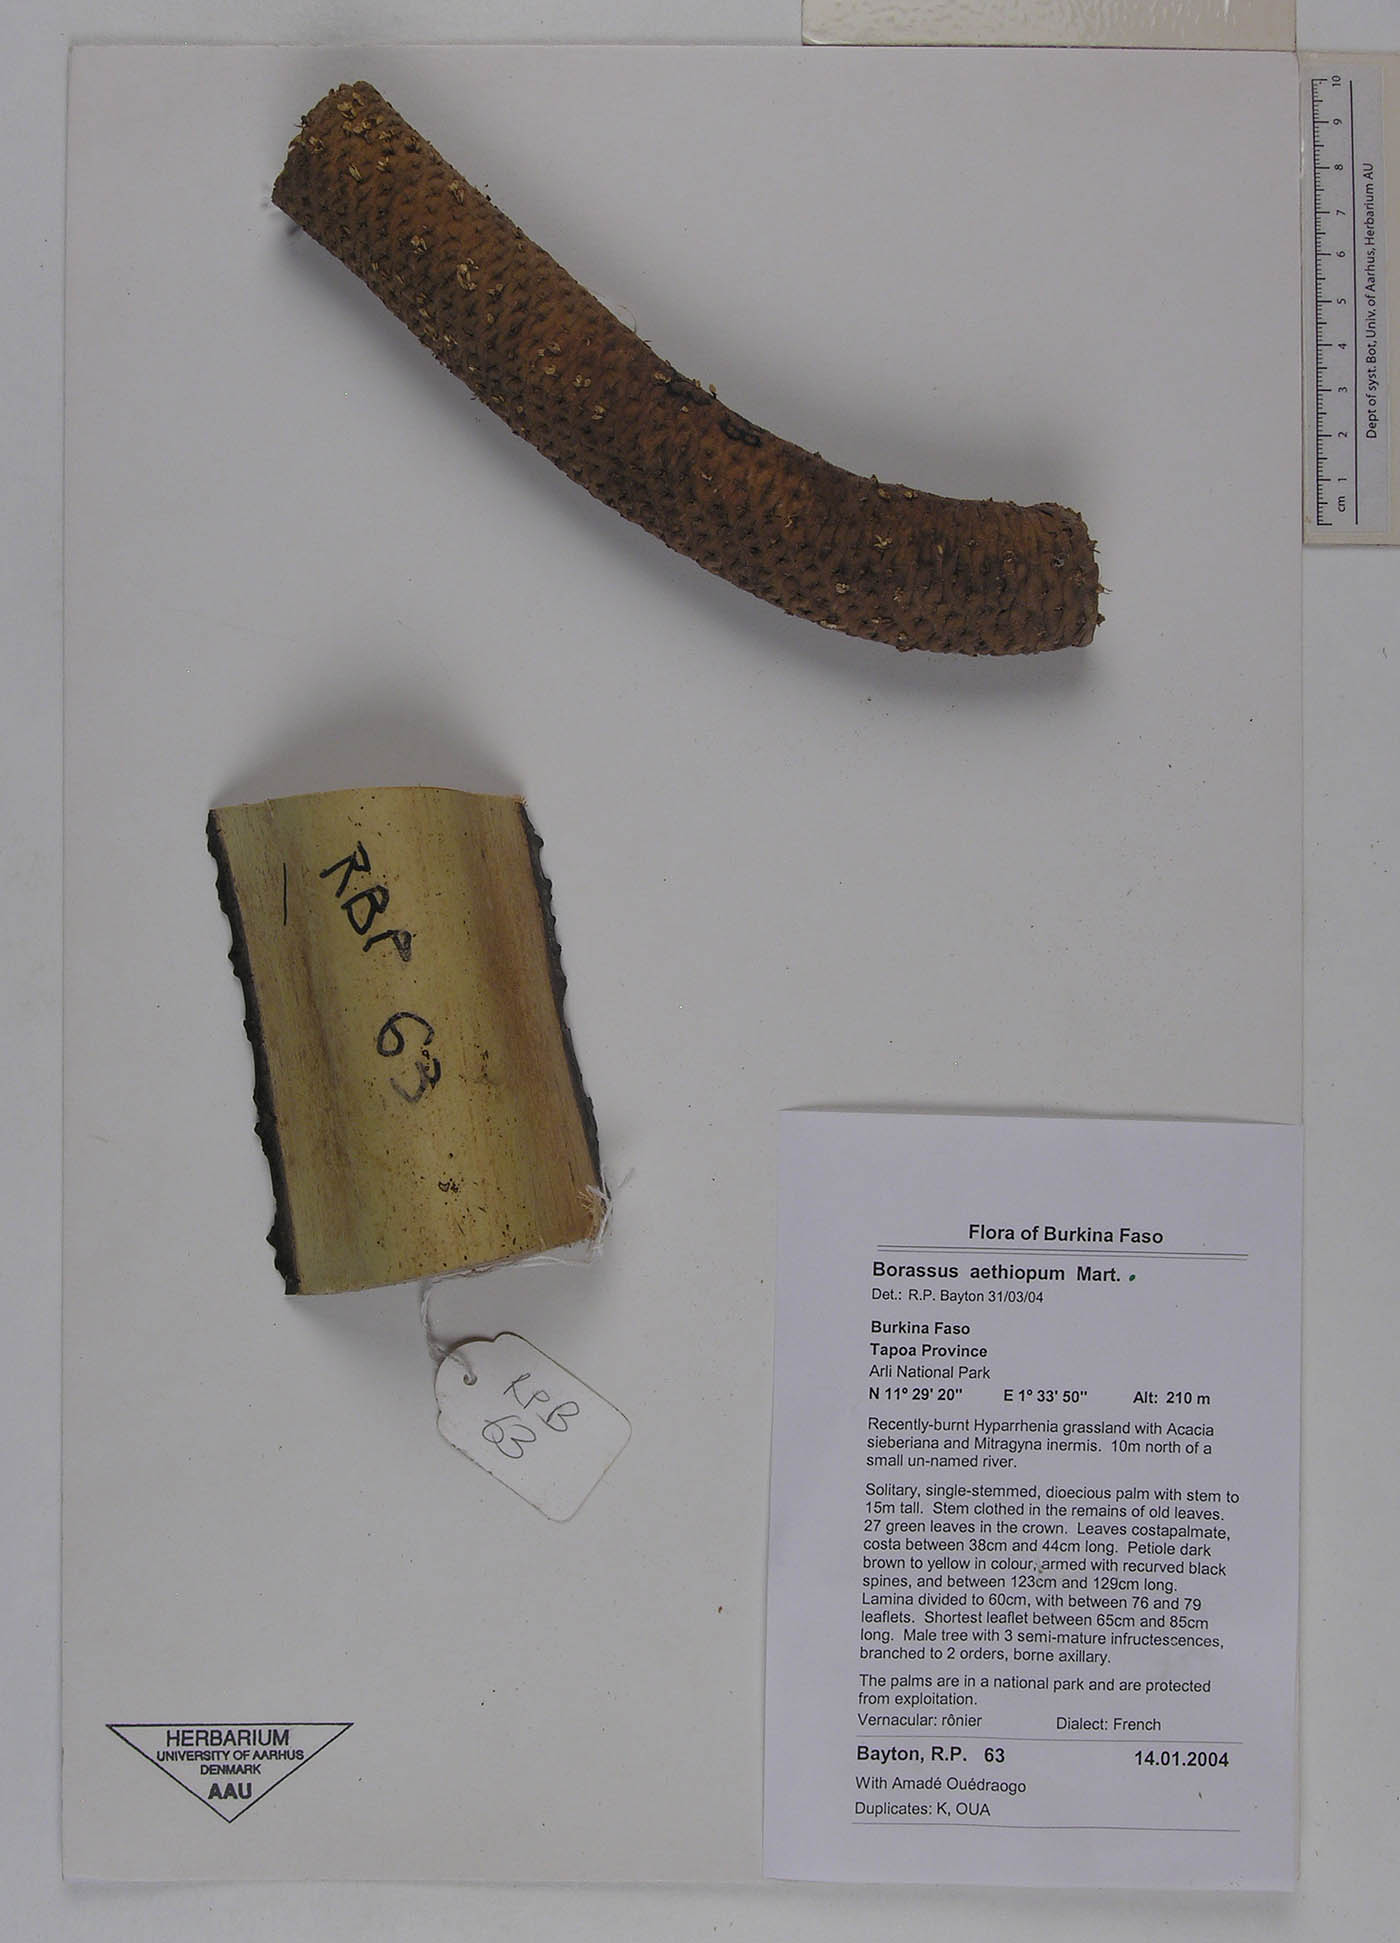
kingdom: Plantae
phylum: Tracheophyta
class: Liliopsida
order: Arecales
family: Arecaceae
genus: Borassus
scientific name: Borassus aethiopum
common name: Elephant palm
